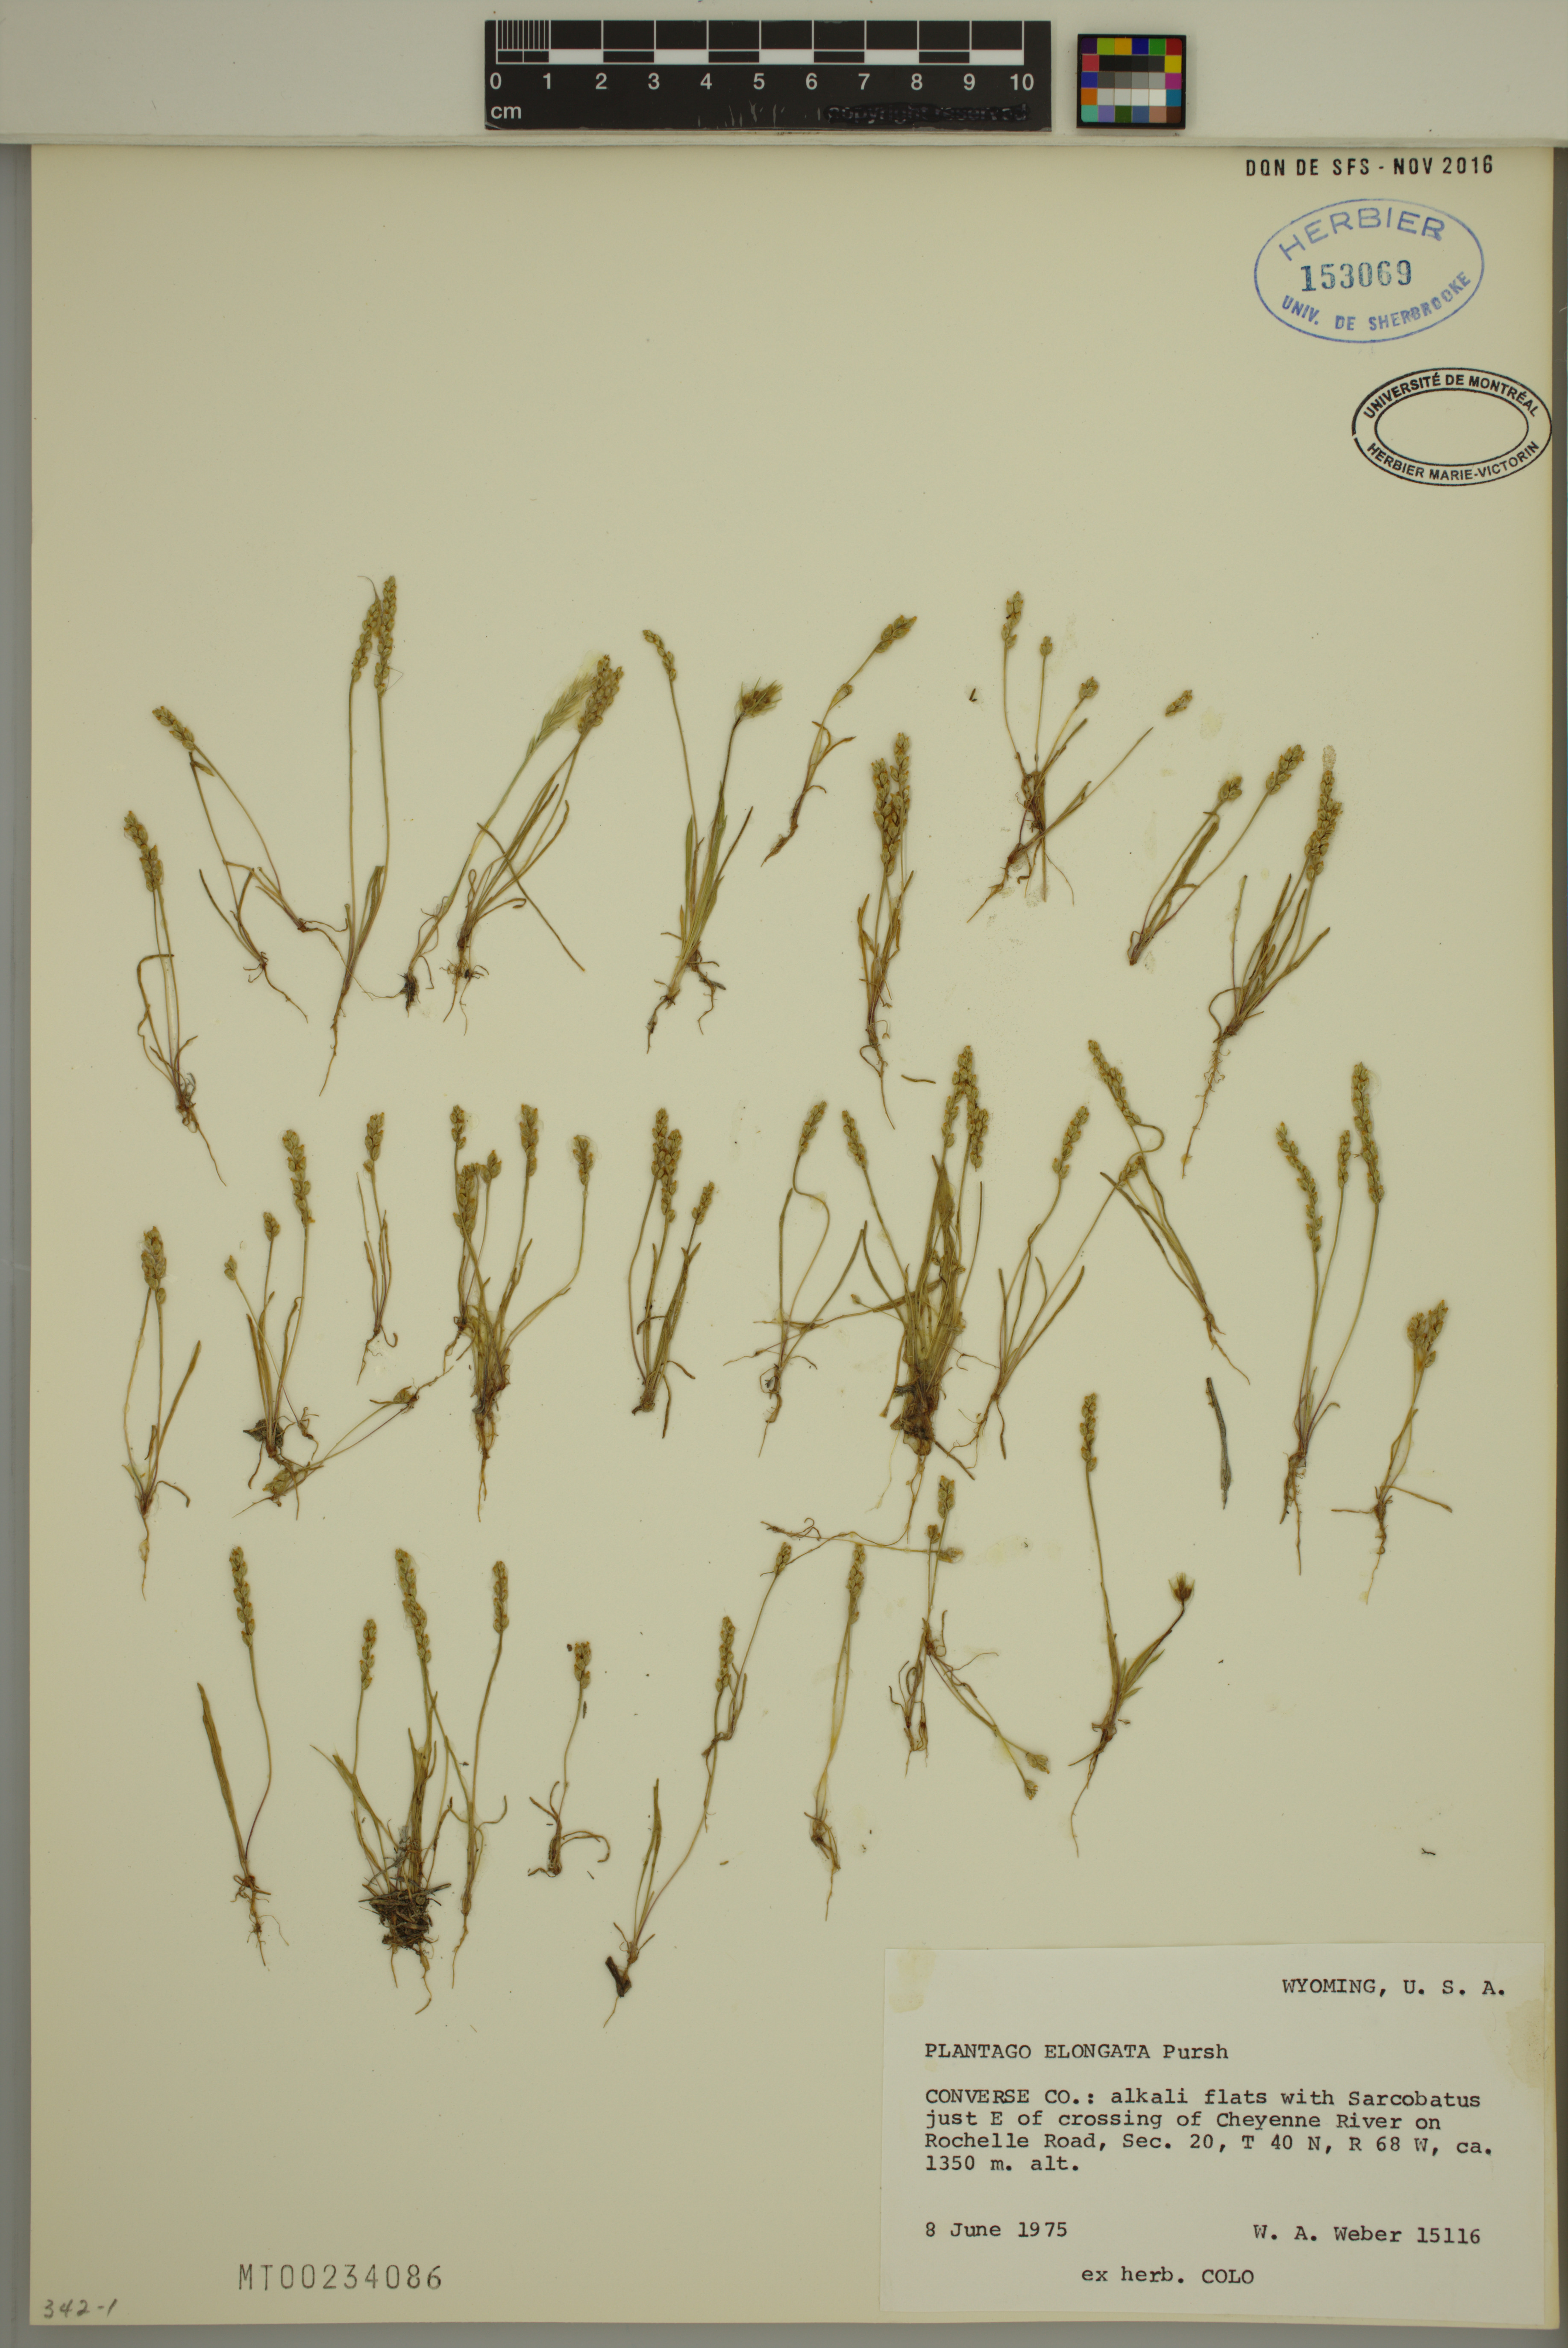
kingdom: Plantae
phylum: Tracheophyta
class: Magnoliopsida
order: Lamiales
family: Plantaginaceae
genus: Plantago
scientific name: Plantago elongata
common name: Linear-leaved plantain
